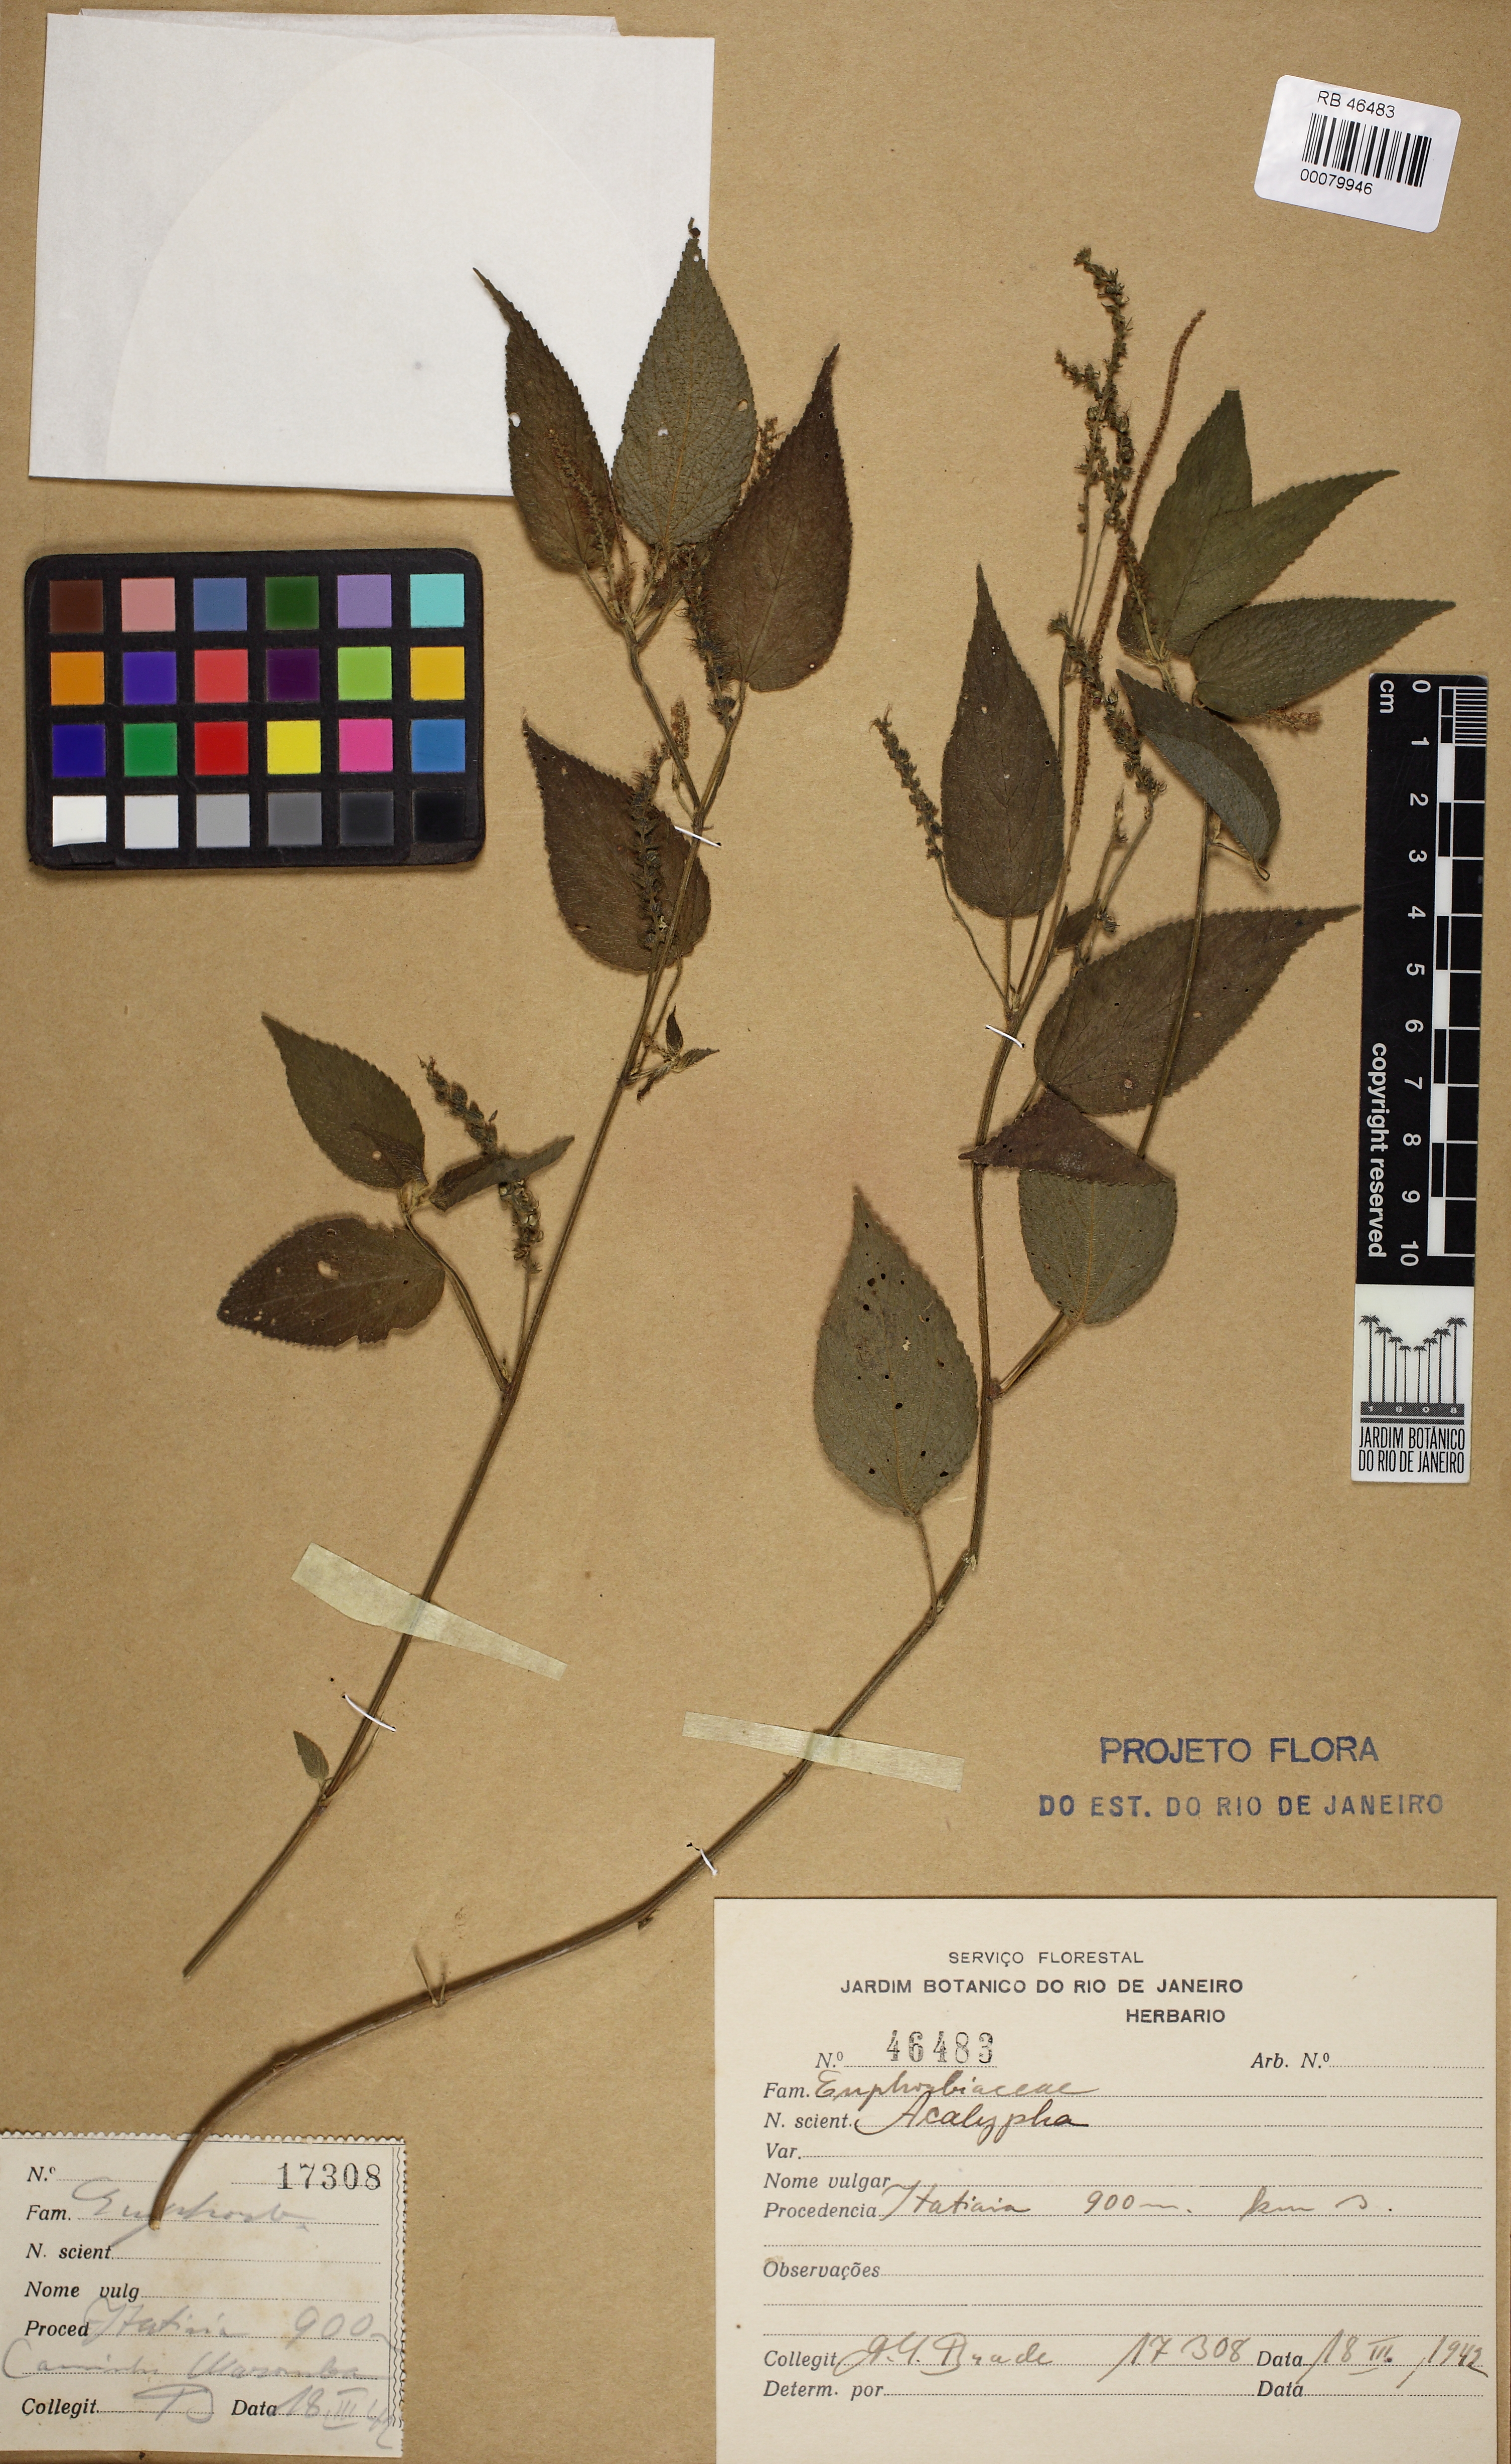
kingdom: Plantae
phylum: Tracheophyta
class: Magnoliopsida
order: Malpighiales
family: Euphorbiaceae
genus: Acalypha
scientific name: Acalypha gracilis
